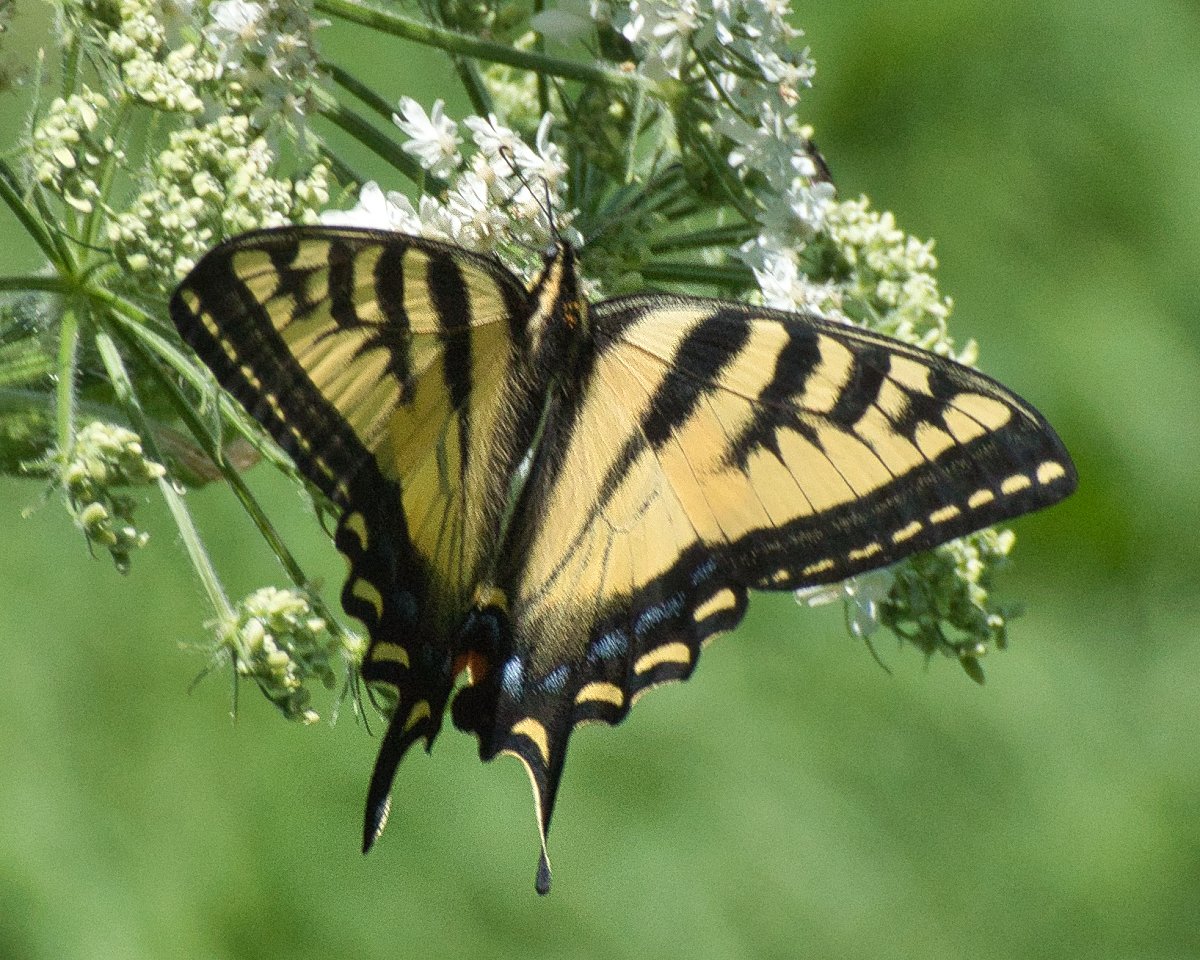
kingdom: Animalia
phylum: Arthropoda
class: Insecta
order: Lepidoptera
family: Papilionidae
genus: Pterourus
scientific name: Pterourus rutulus
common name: Western Tiger Swallowtail
